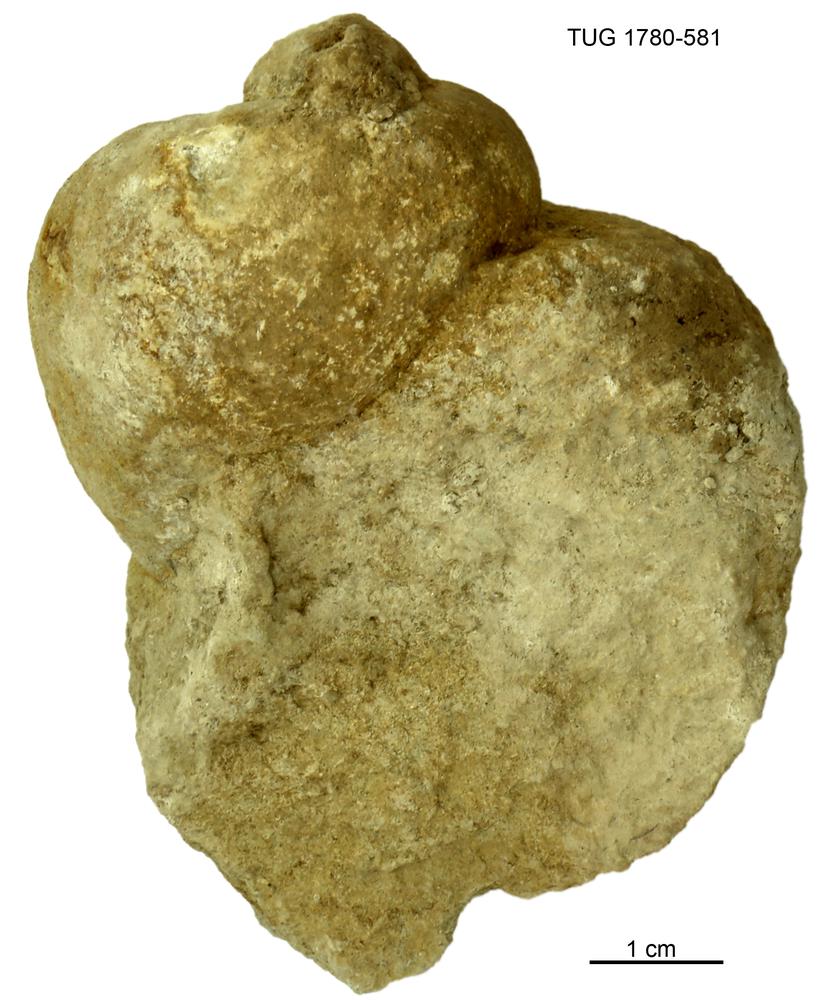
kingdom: Animalia
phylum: Mollusca
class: Gastropoda
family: Holopeidae
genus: Holopea
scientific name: Holopea ampullacea
